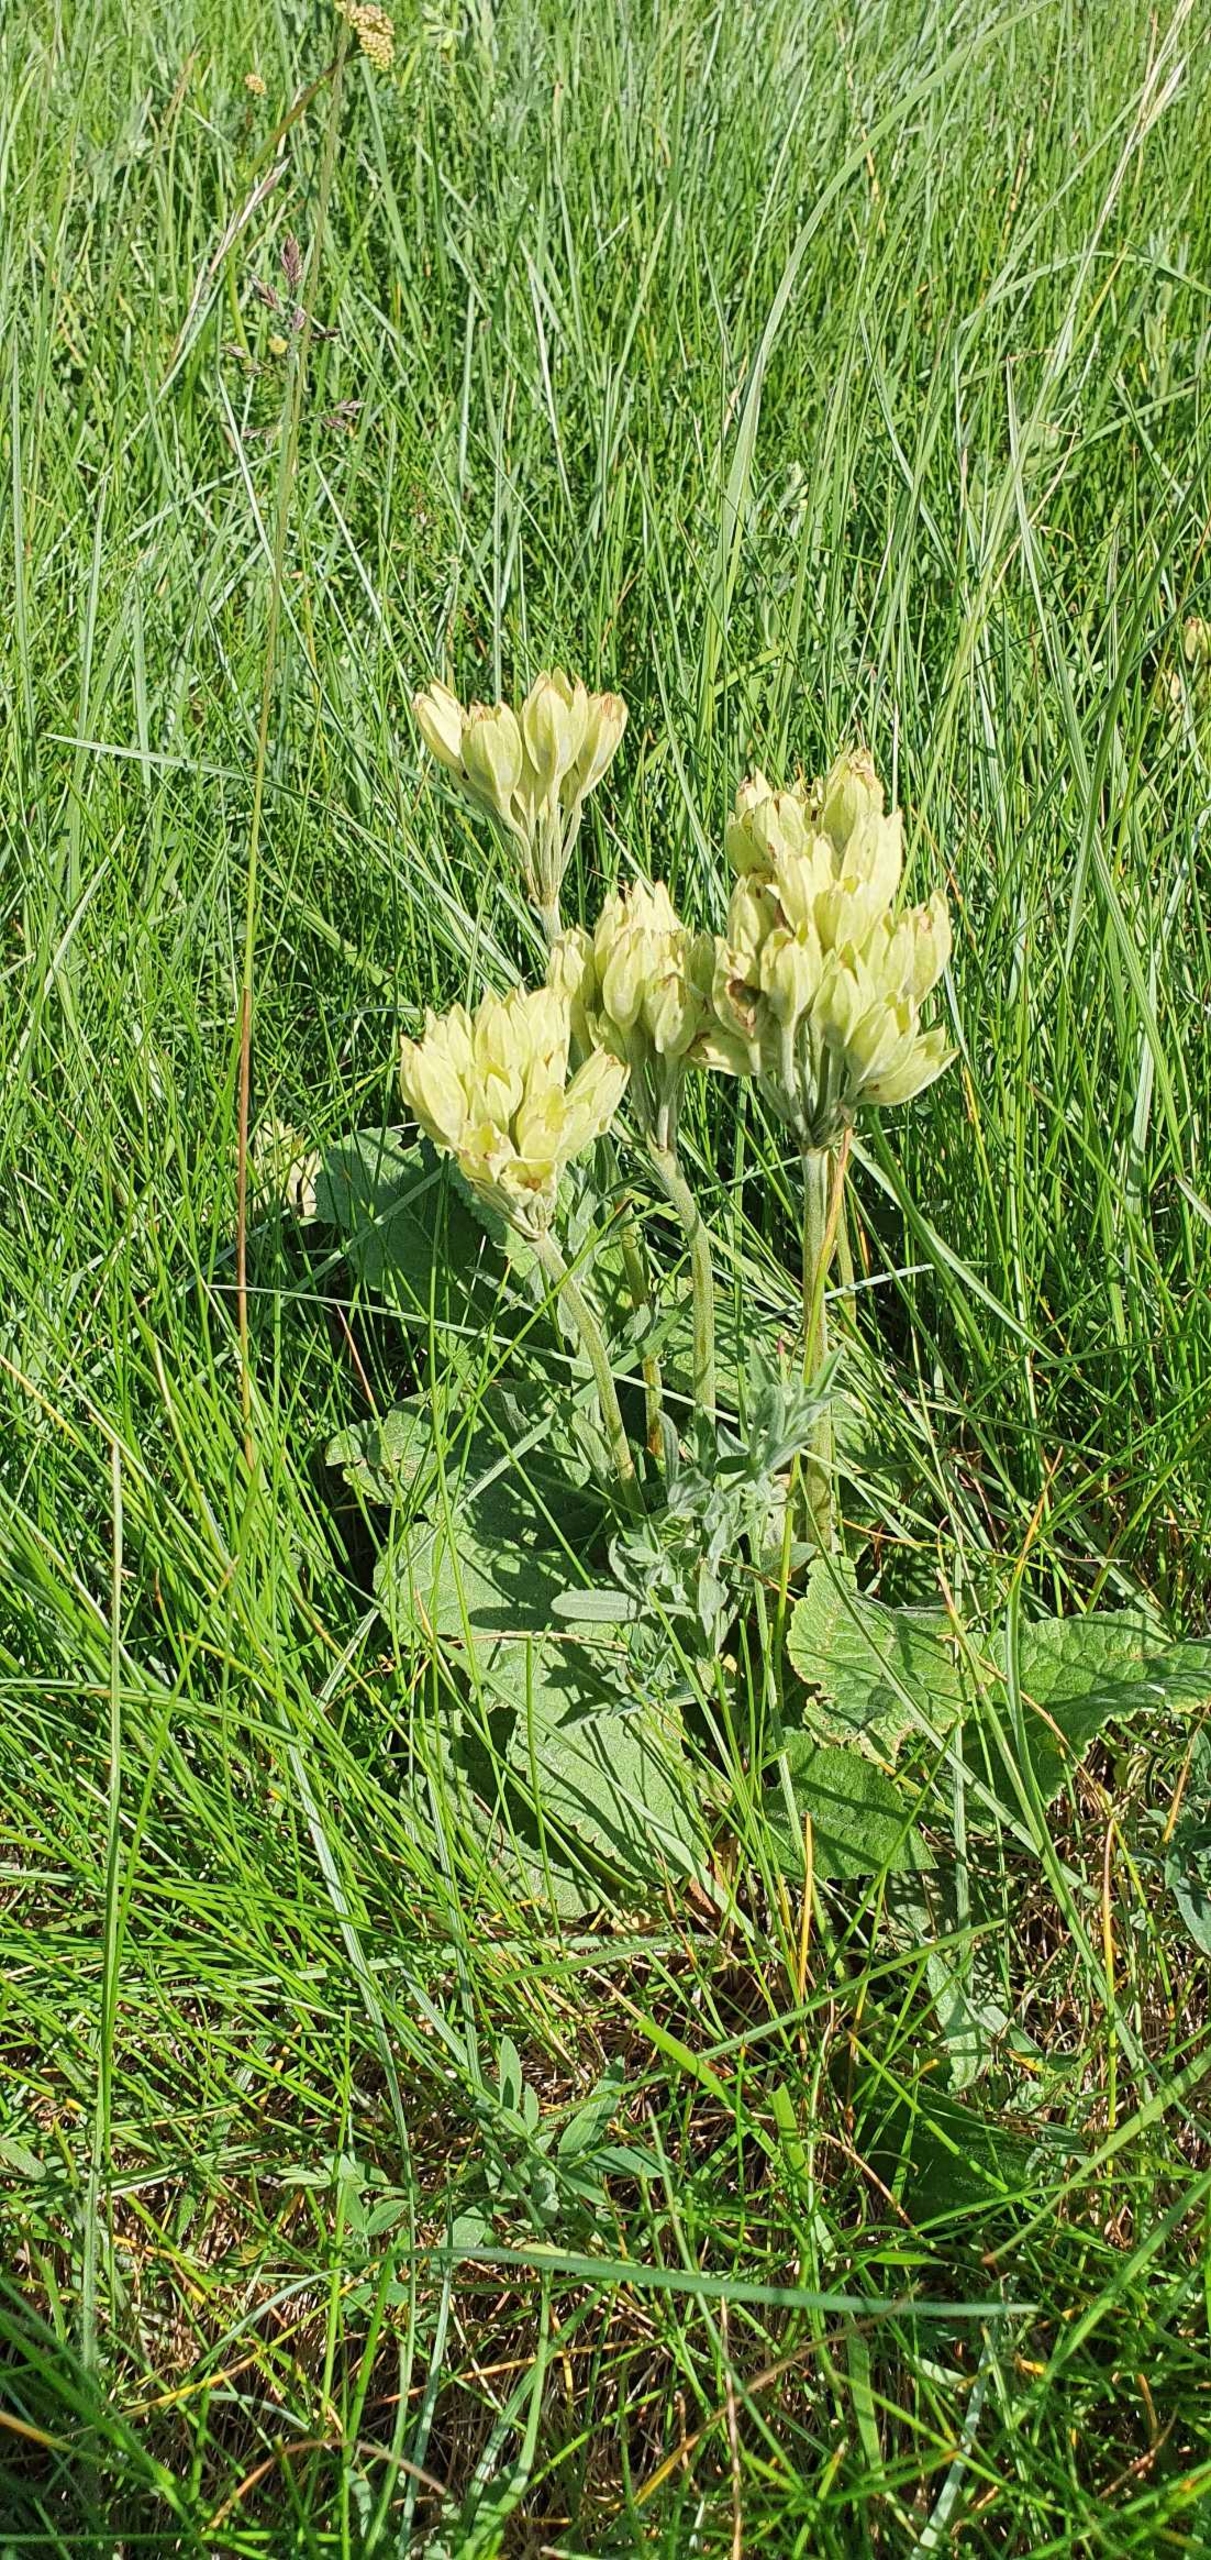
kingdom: Plantae
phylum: Tracheophyta
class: Magnoliopsida
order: Ericales
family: Primulaceae
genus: Primula
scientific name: Primula veris
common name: Hulkravet kodriver
